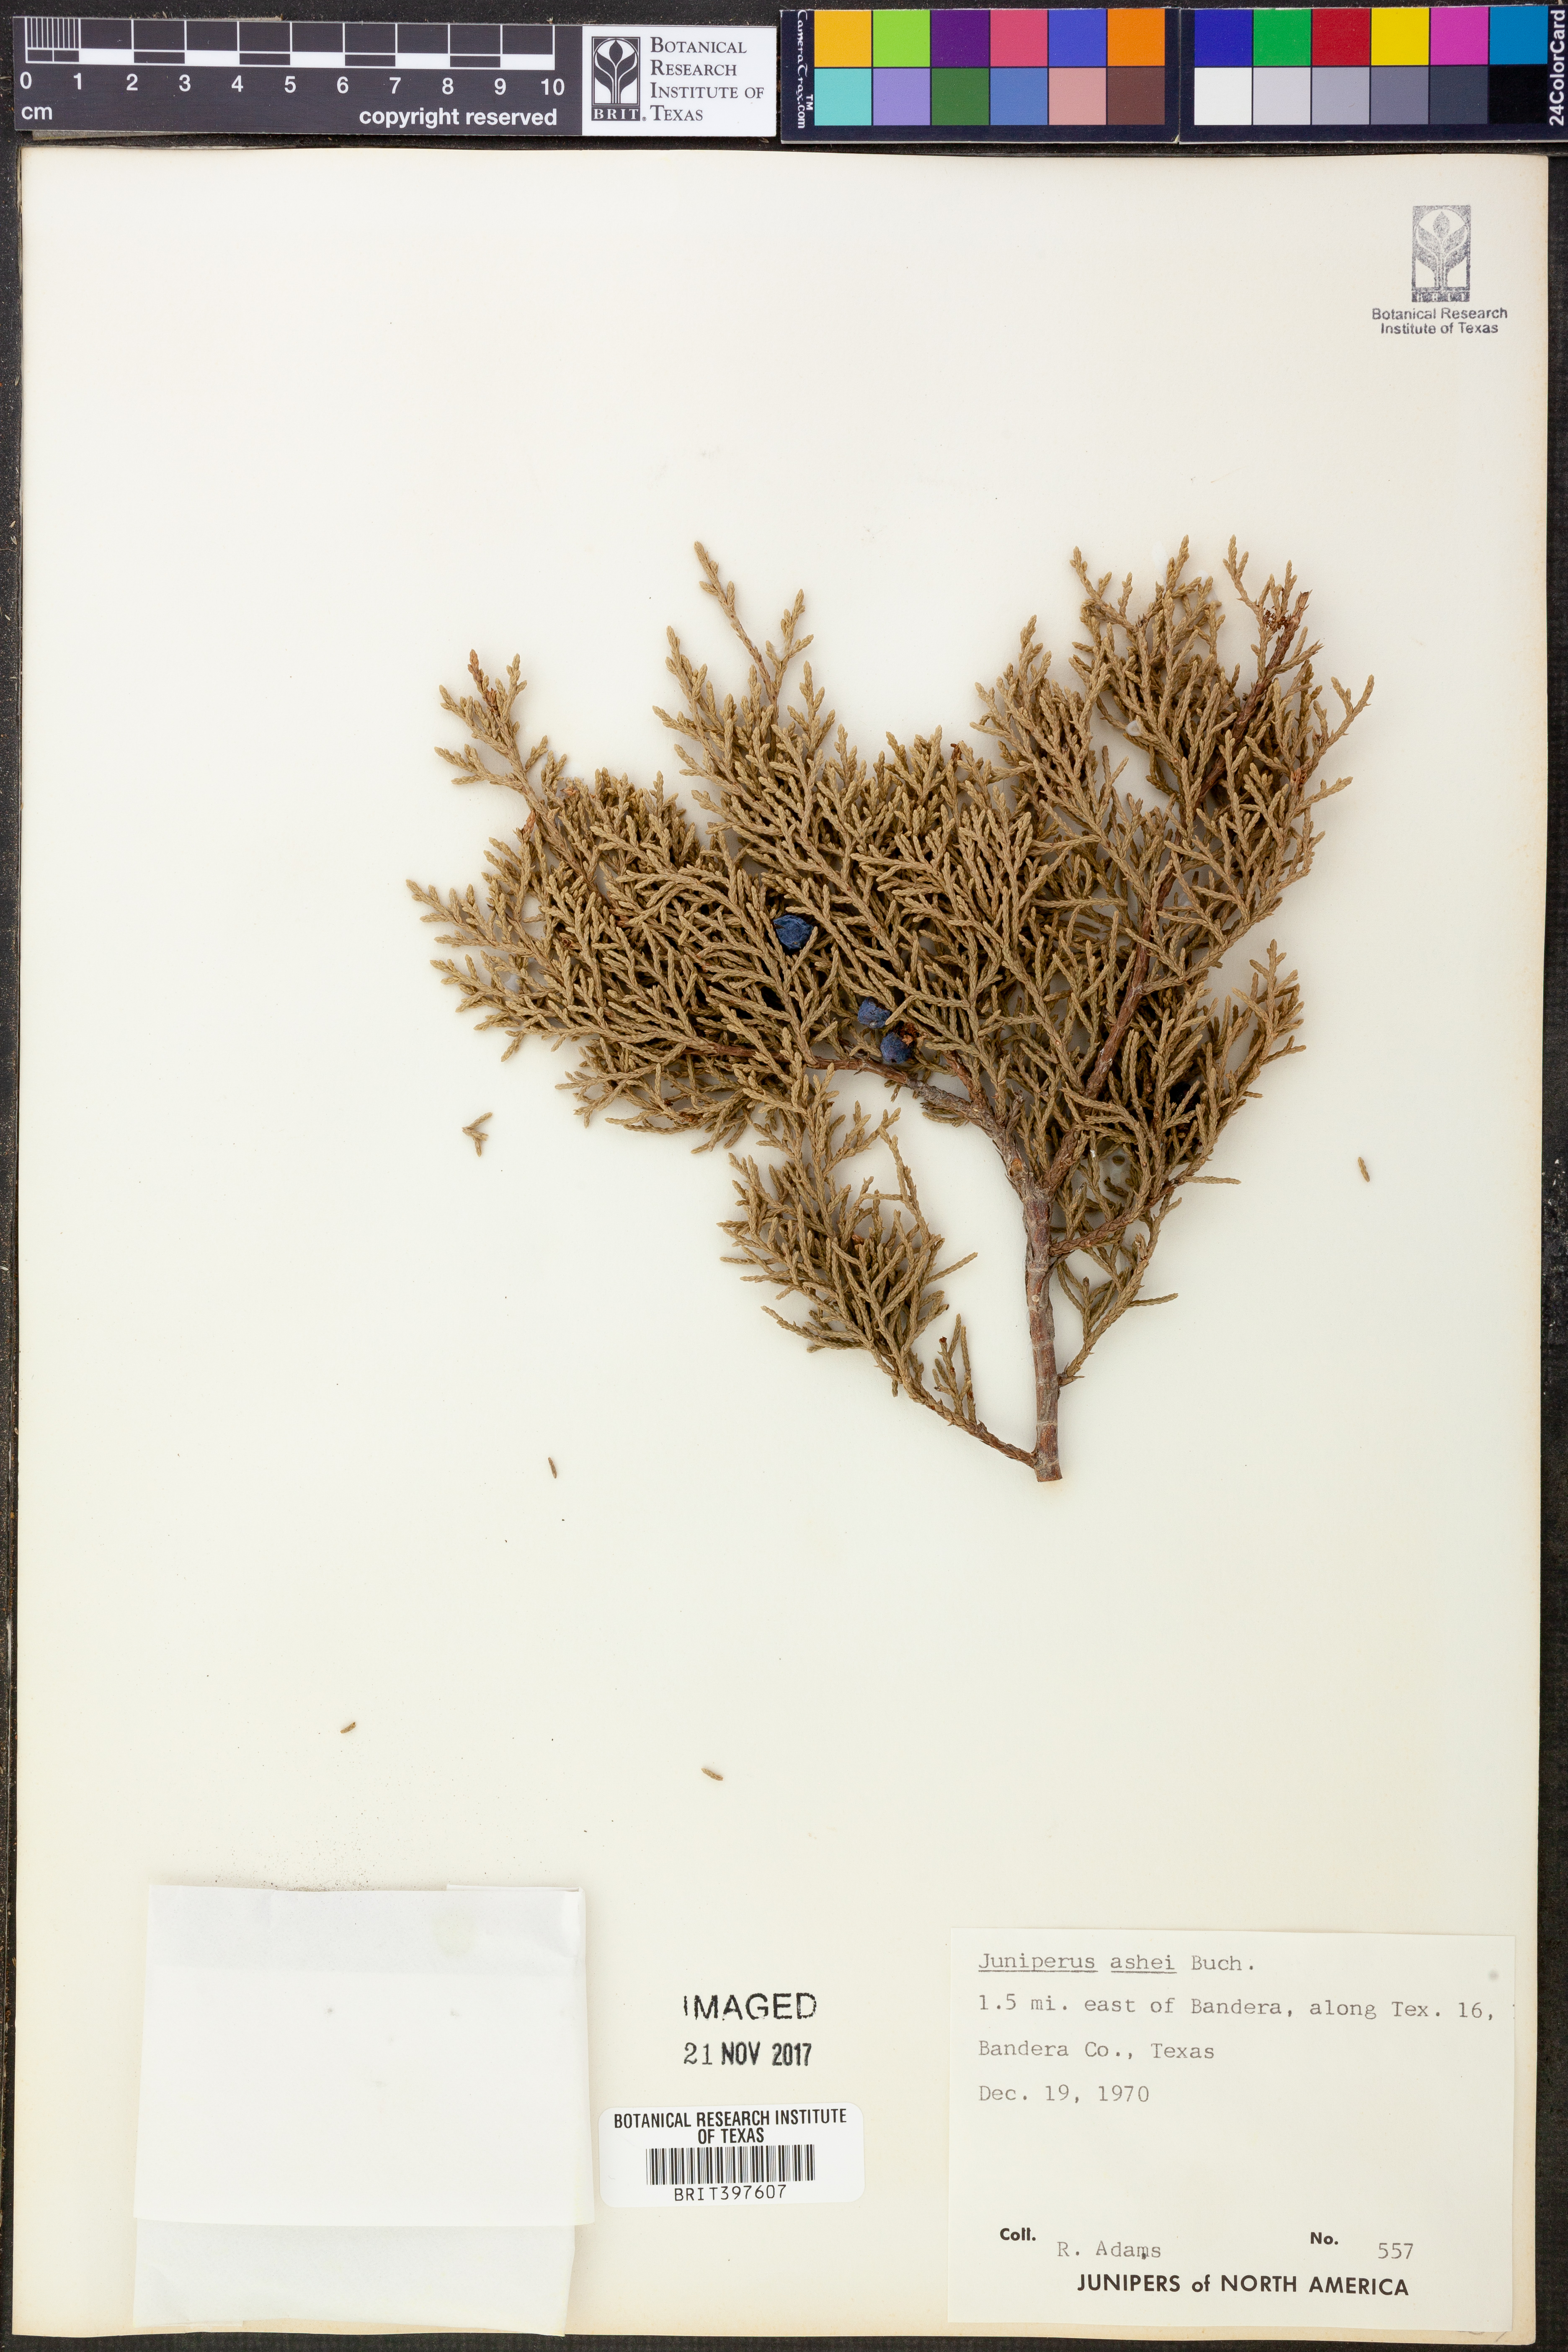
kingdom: Plantae
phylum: Tracheophyta
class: Pinopsida
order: Pinales
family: Cupressaceae
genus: Juniperus
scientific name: Juniperus ashei
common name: Mexican juniper
